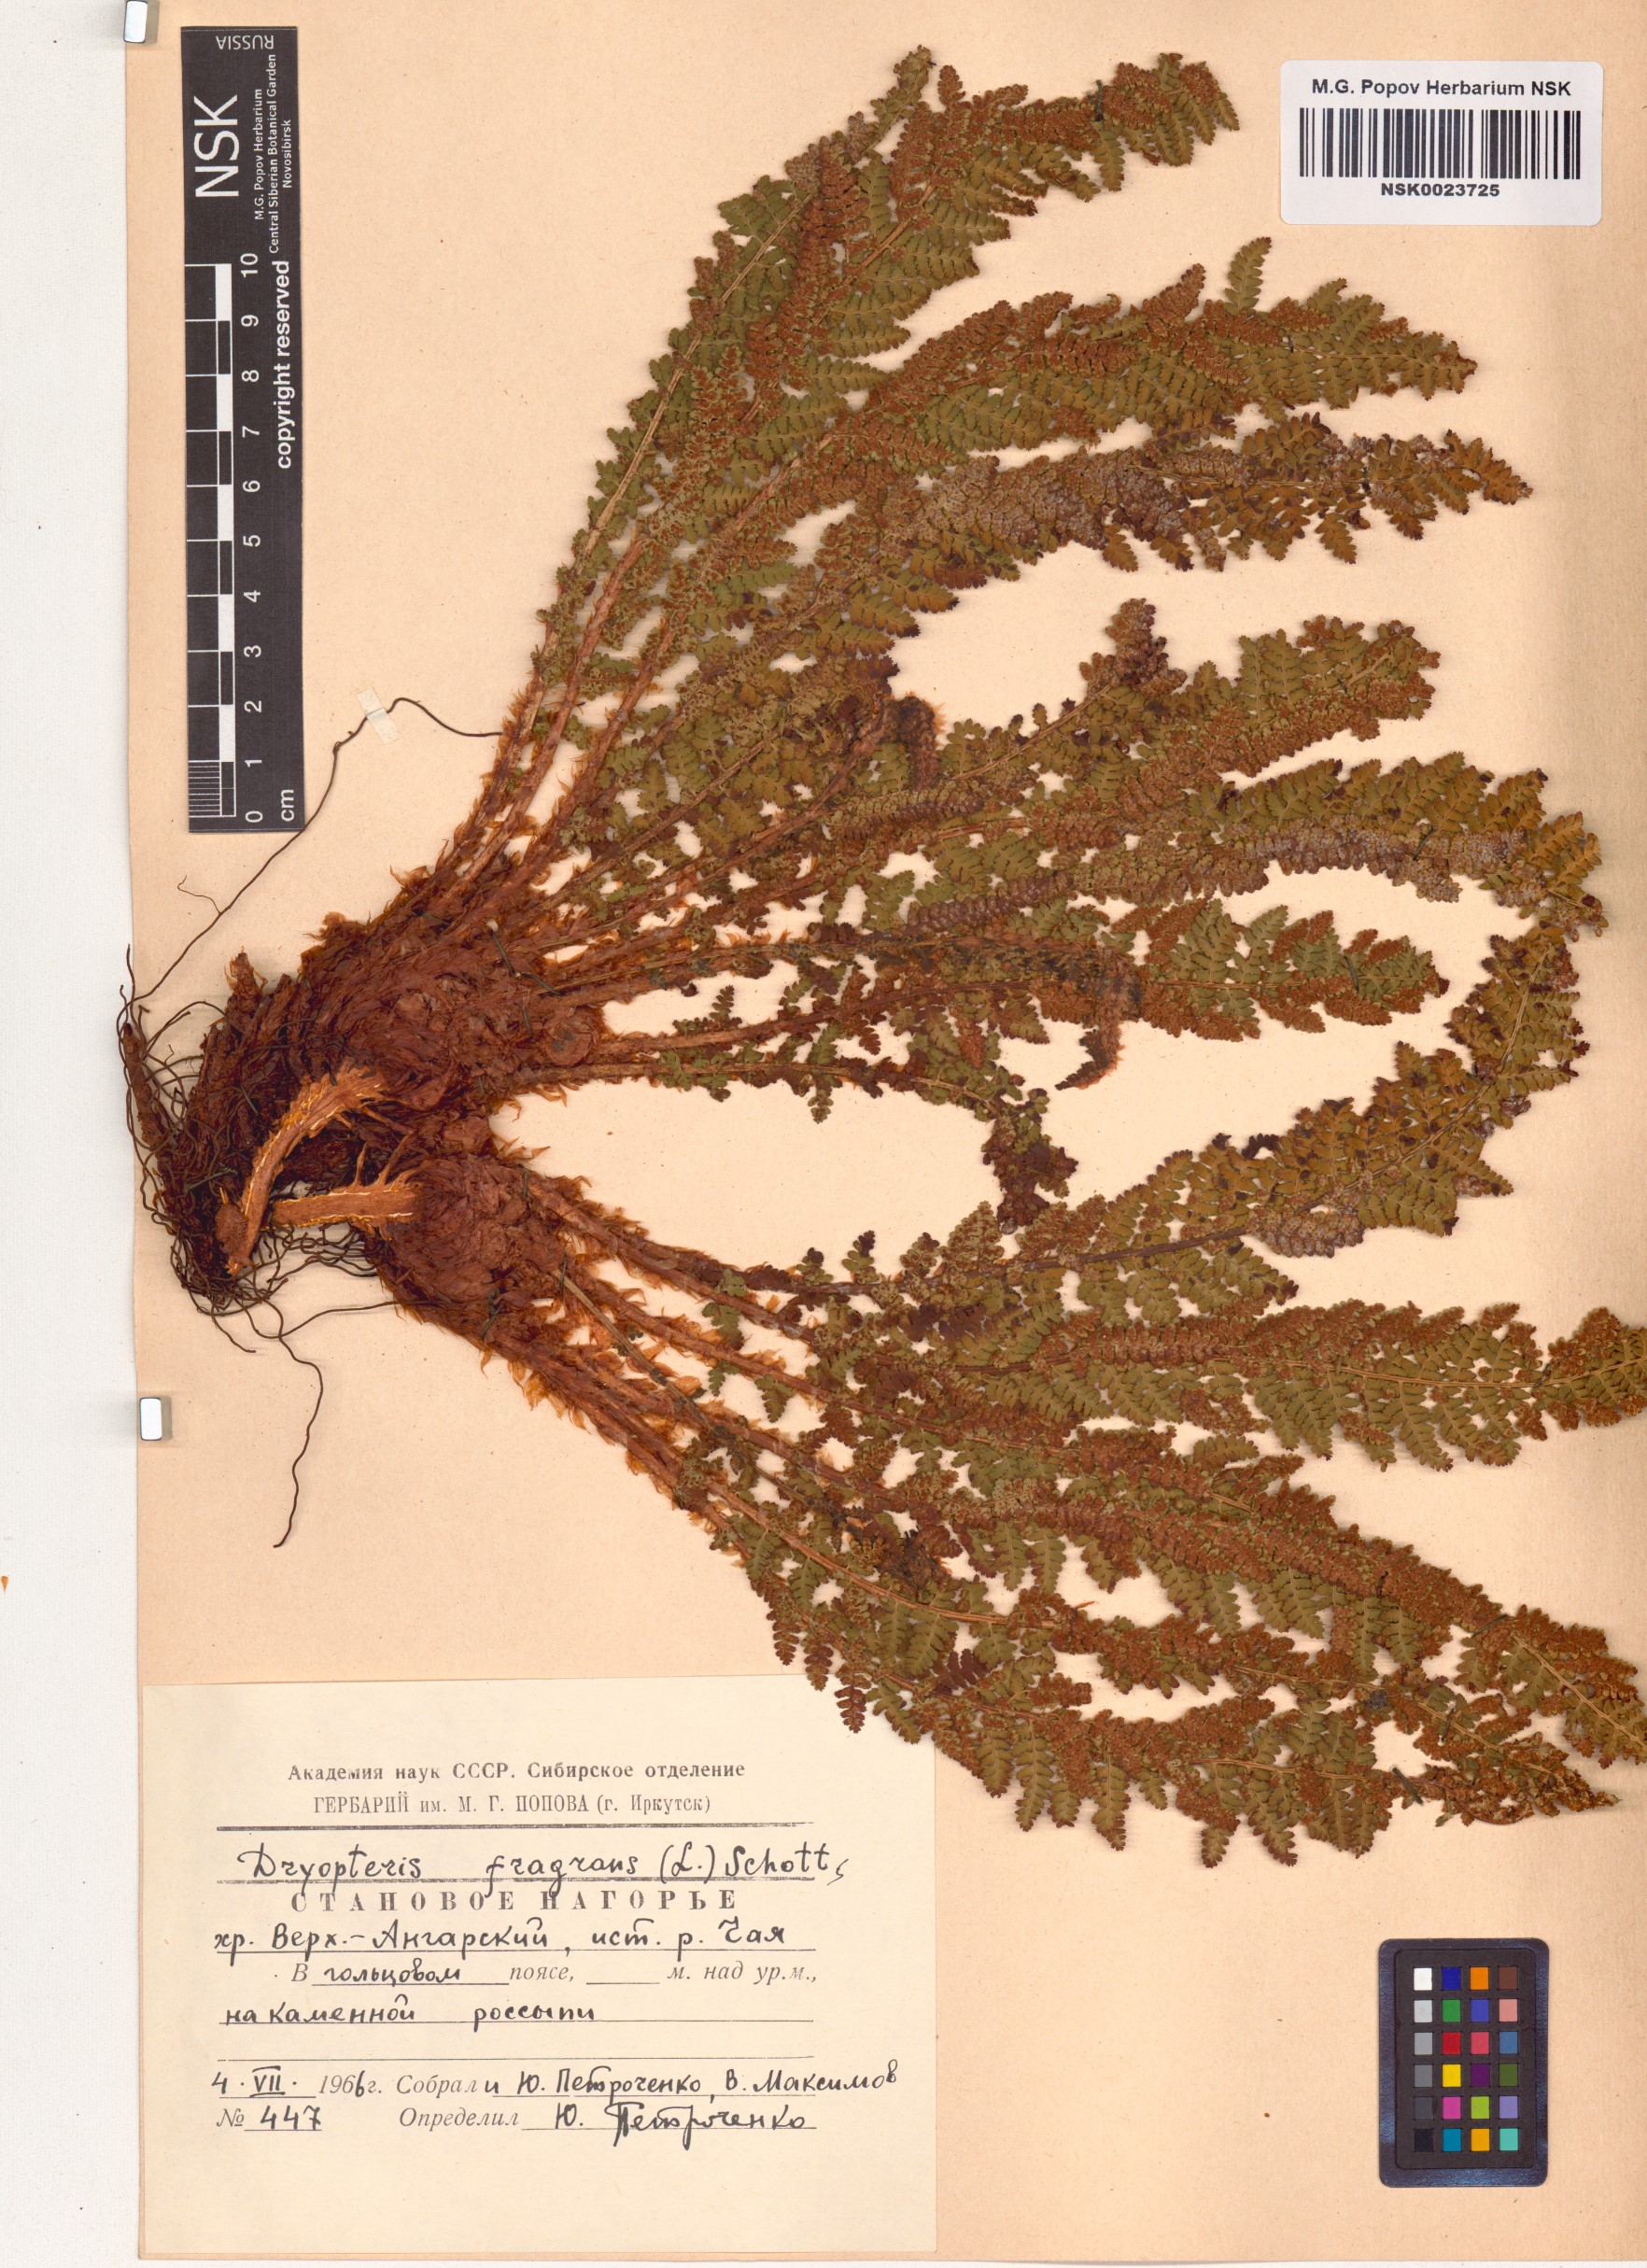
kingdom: Plantae
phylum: Tracheophyta
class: Polypodiopsida
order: Polypodiales
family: Dryopteridaceae
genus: Dryopteris
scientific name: Dryopteris fragrans
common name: Fragrant wood fern
